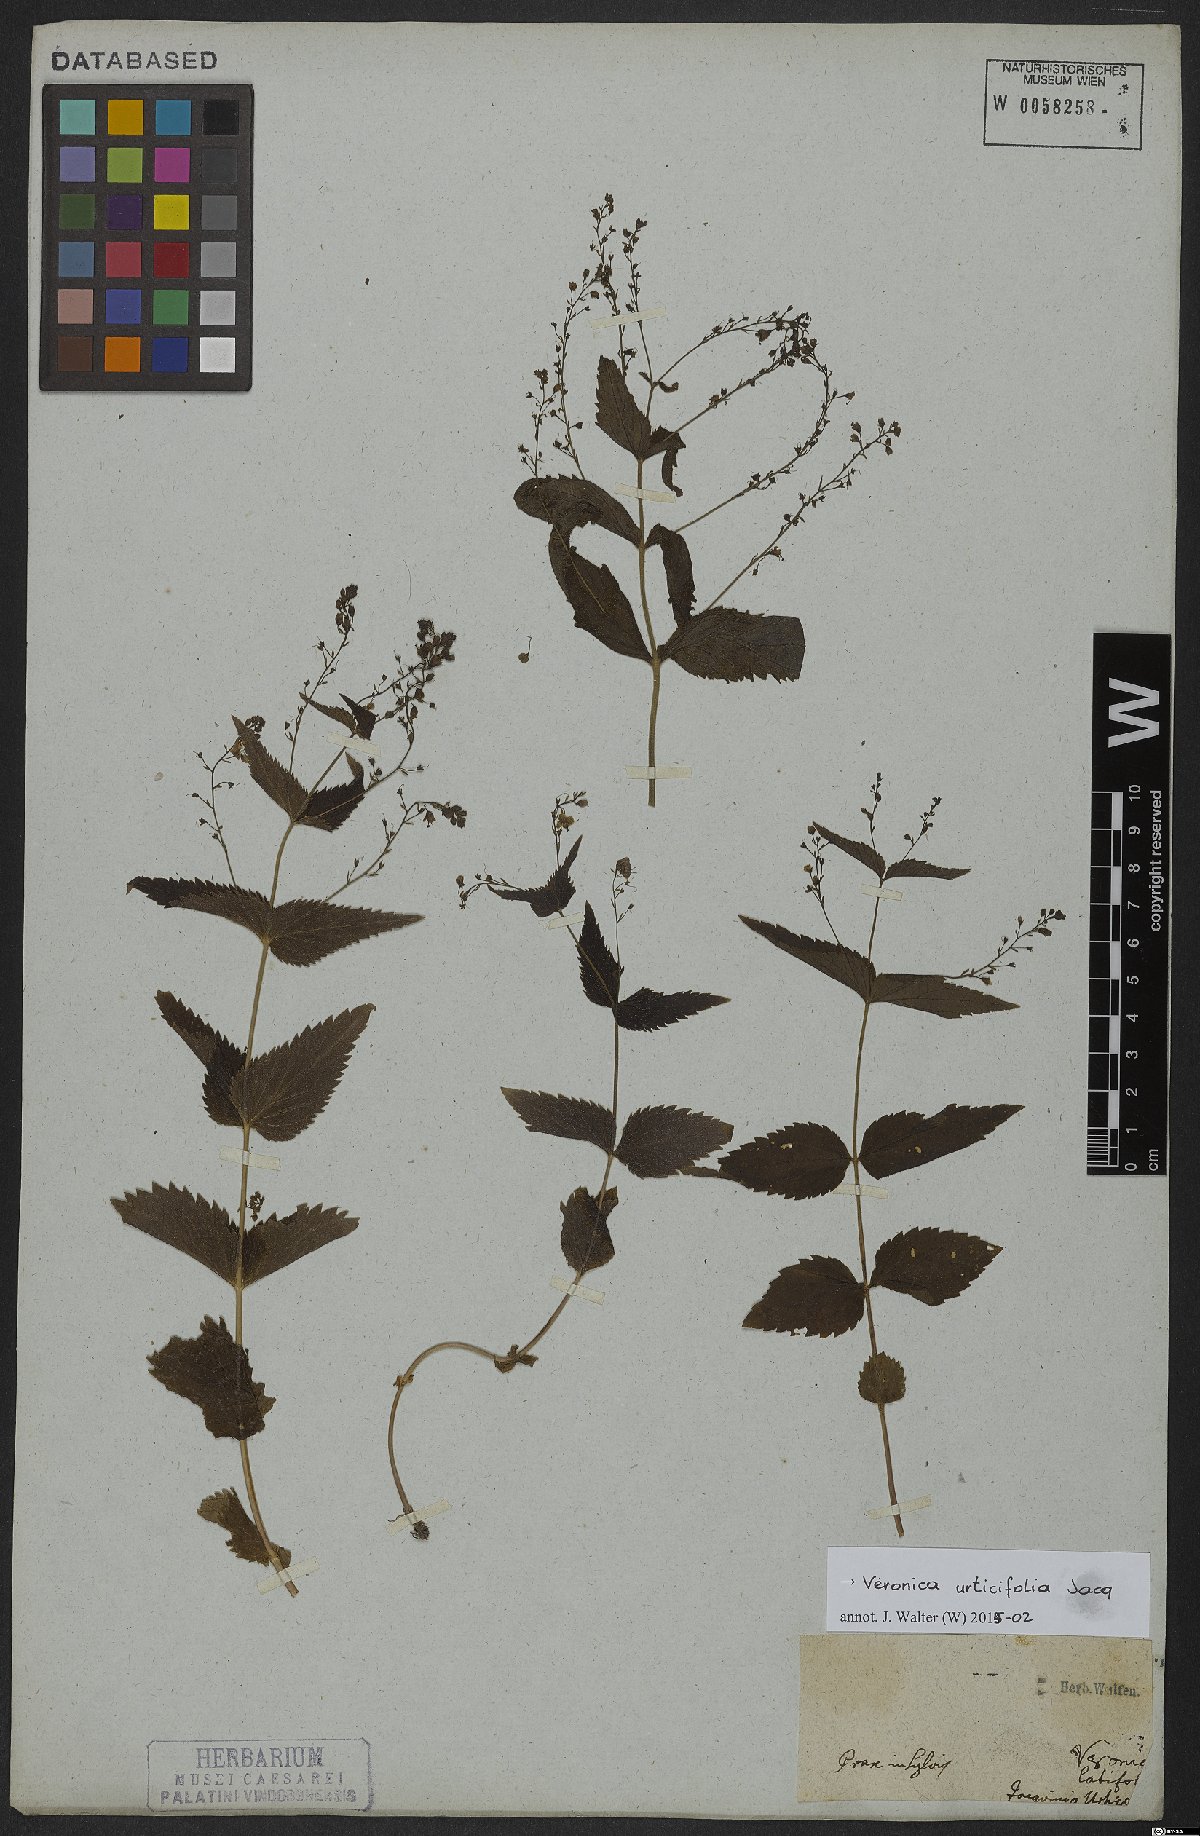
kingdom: Plantae
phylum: Tracheophyta
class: Magnoliopsida
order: Lamiales
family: Plantaginaceae
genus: Veronica
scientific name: Veronica urticifolia
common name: Nettle-leaf speedwell
